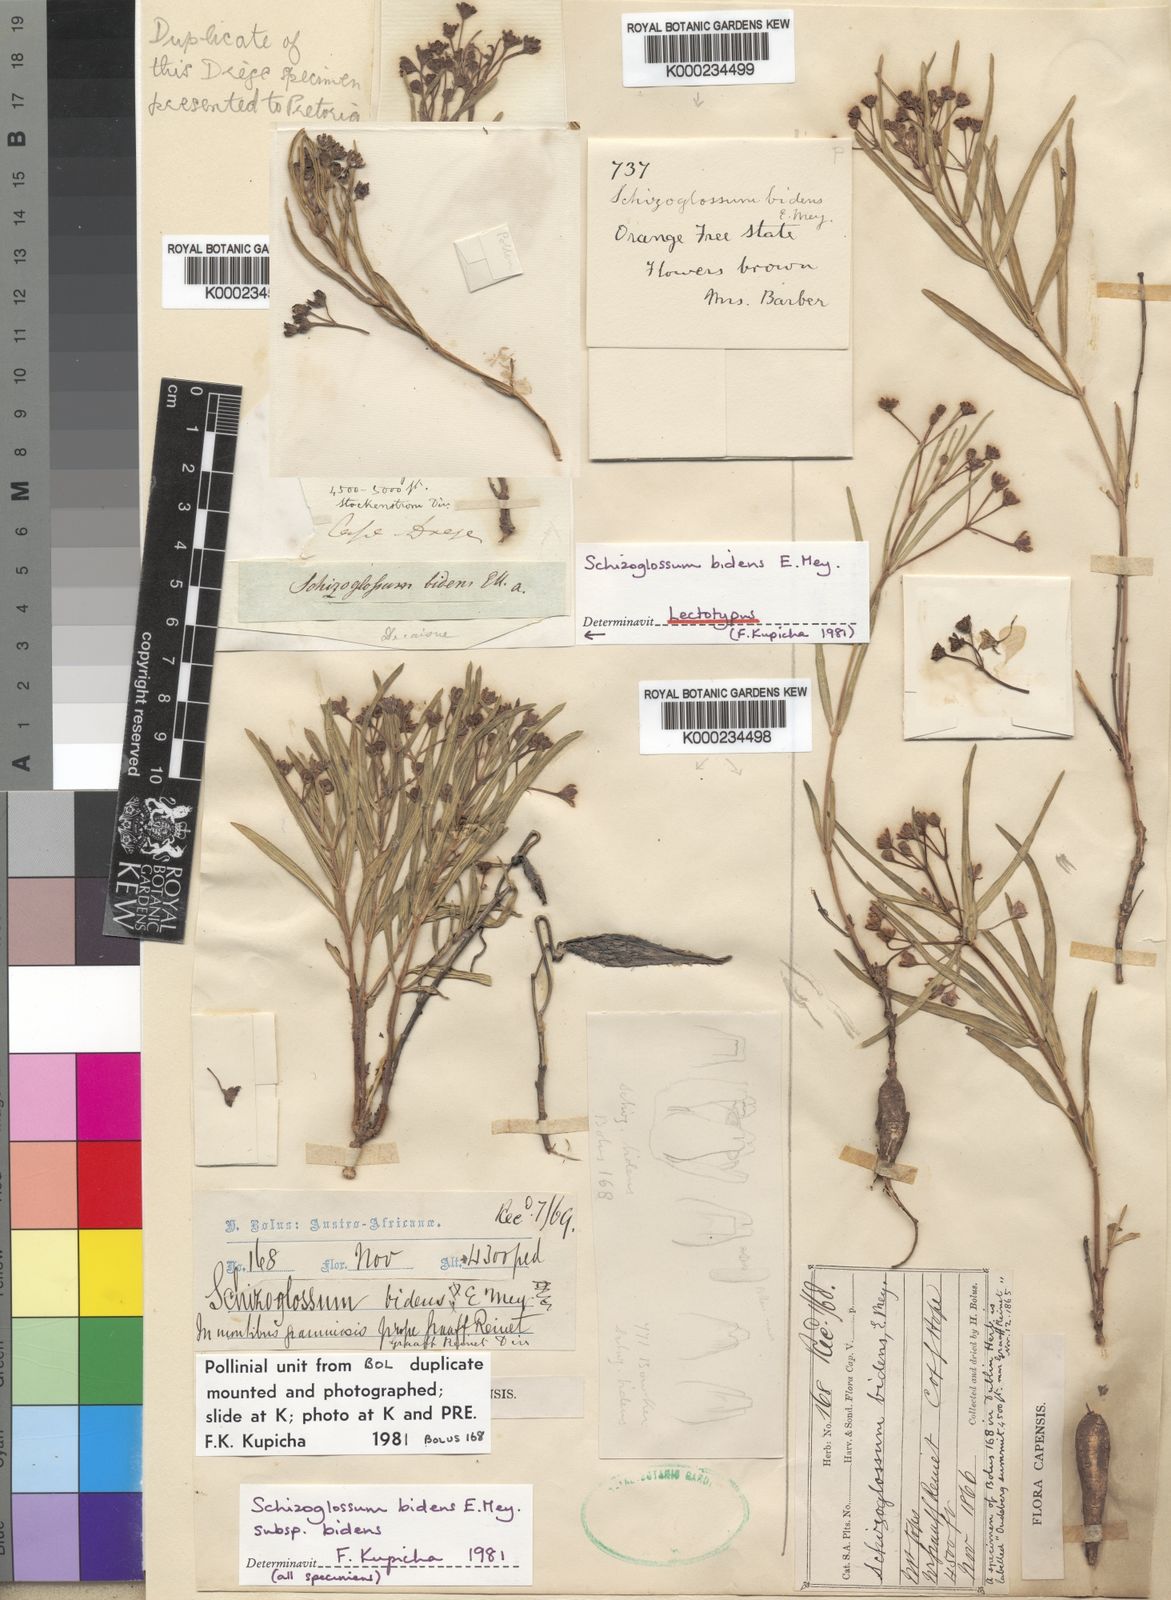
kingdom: Plantae
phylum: Tracheophyta
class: Magnoliopsida
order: Gentianales
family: Apocynaceae
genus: Schizoglossum
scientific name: Schizoglossum bidens
